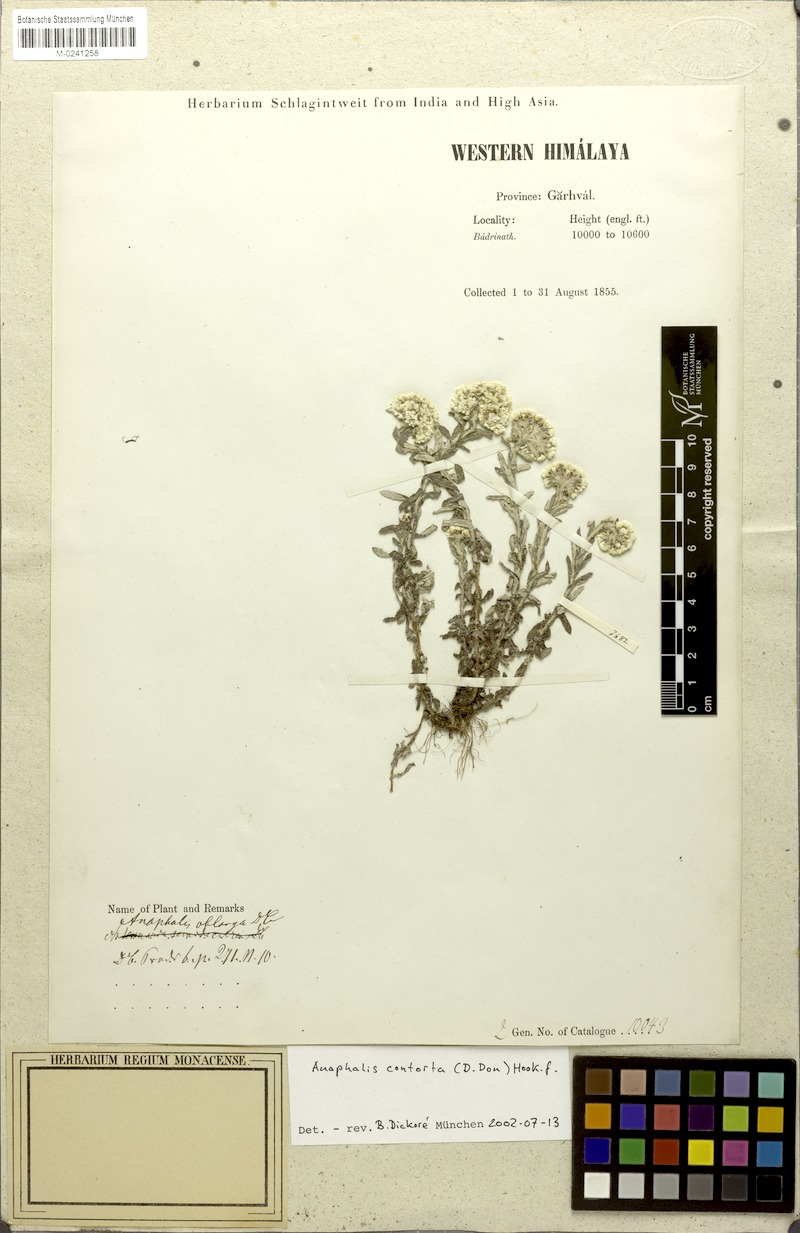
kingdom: Plantae
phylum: Tracheophyta
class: Magnoliopsida
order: Asterales
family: Asteraceae
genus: Anaphalis
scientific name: Anaphalis contorta
